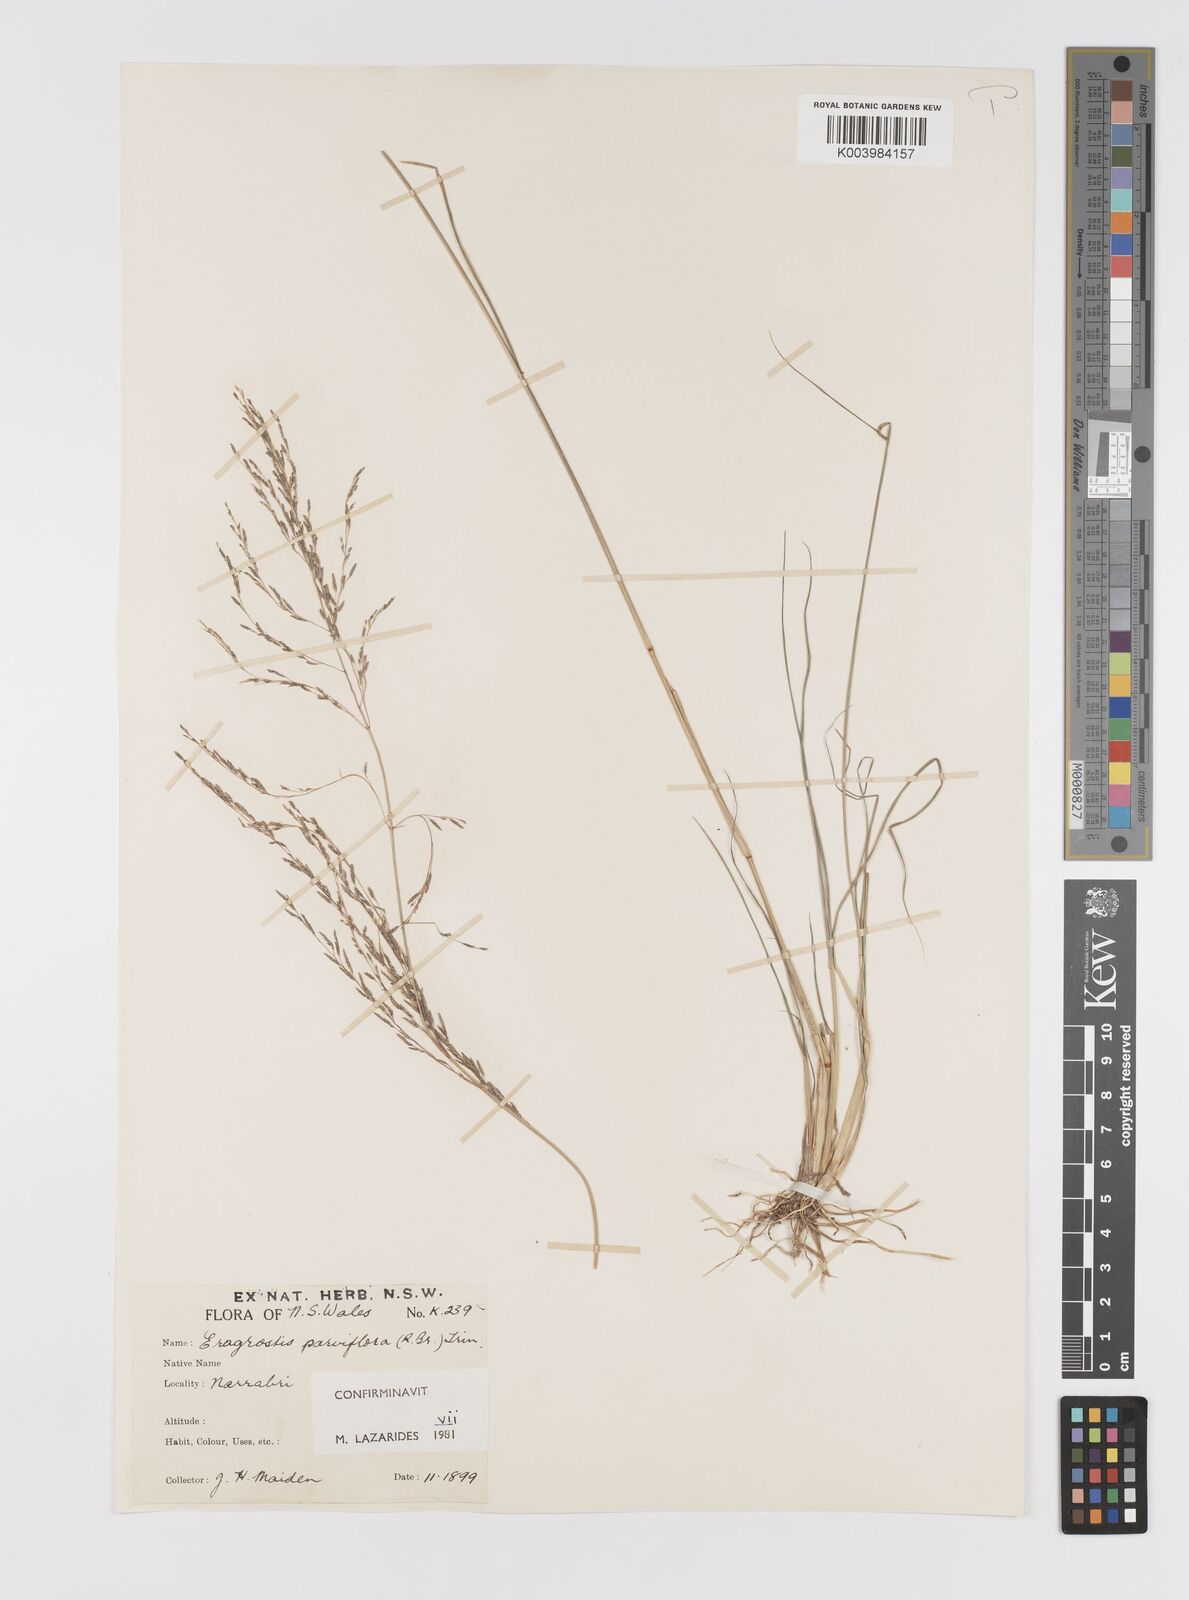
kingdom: Plantae
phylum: Tracheophyta
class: Liliopsida
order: Poales
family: Poaceae
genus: Eragrostis
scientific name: Eragrostis parviflora
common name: Weeping love-grass
